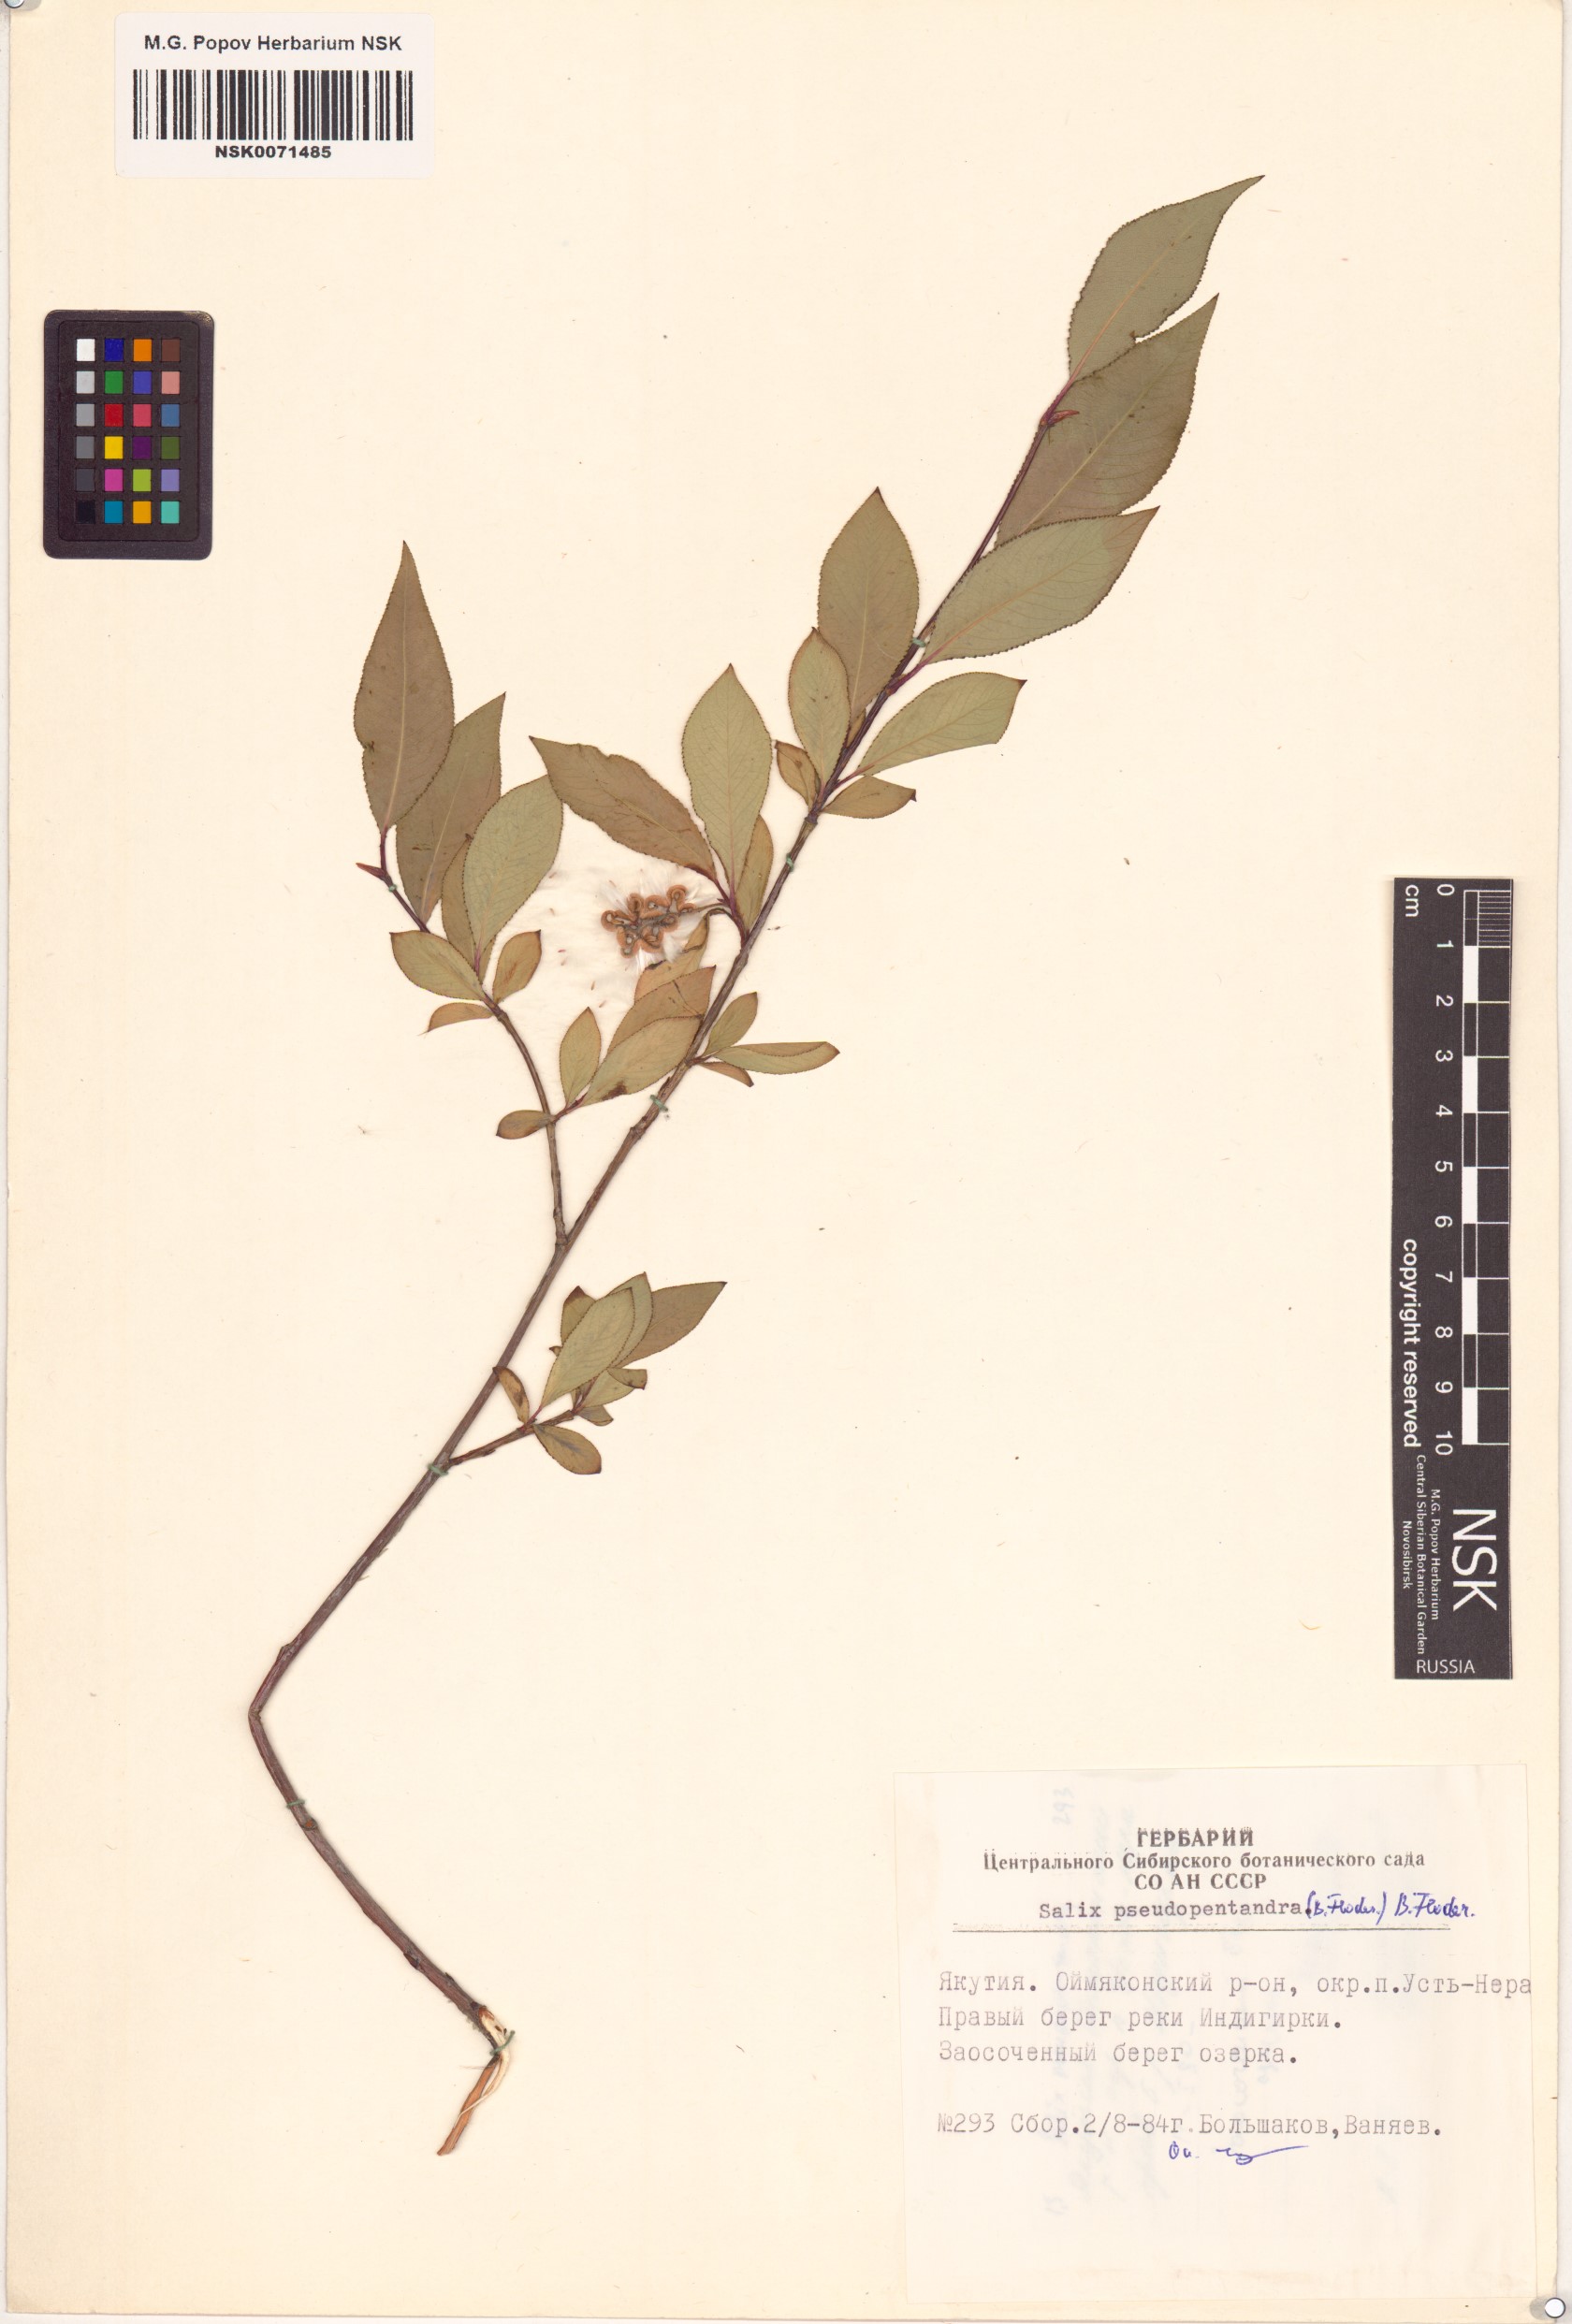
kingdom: Plantae
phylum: Tracheophyta
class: Magnoliopsida
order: Malpighiales
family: Salicaceae
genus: Salix
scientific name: Salix pseudopentandra
